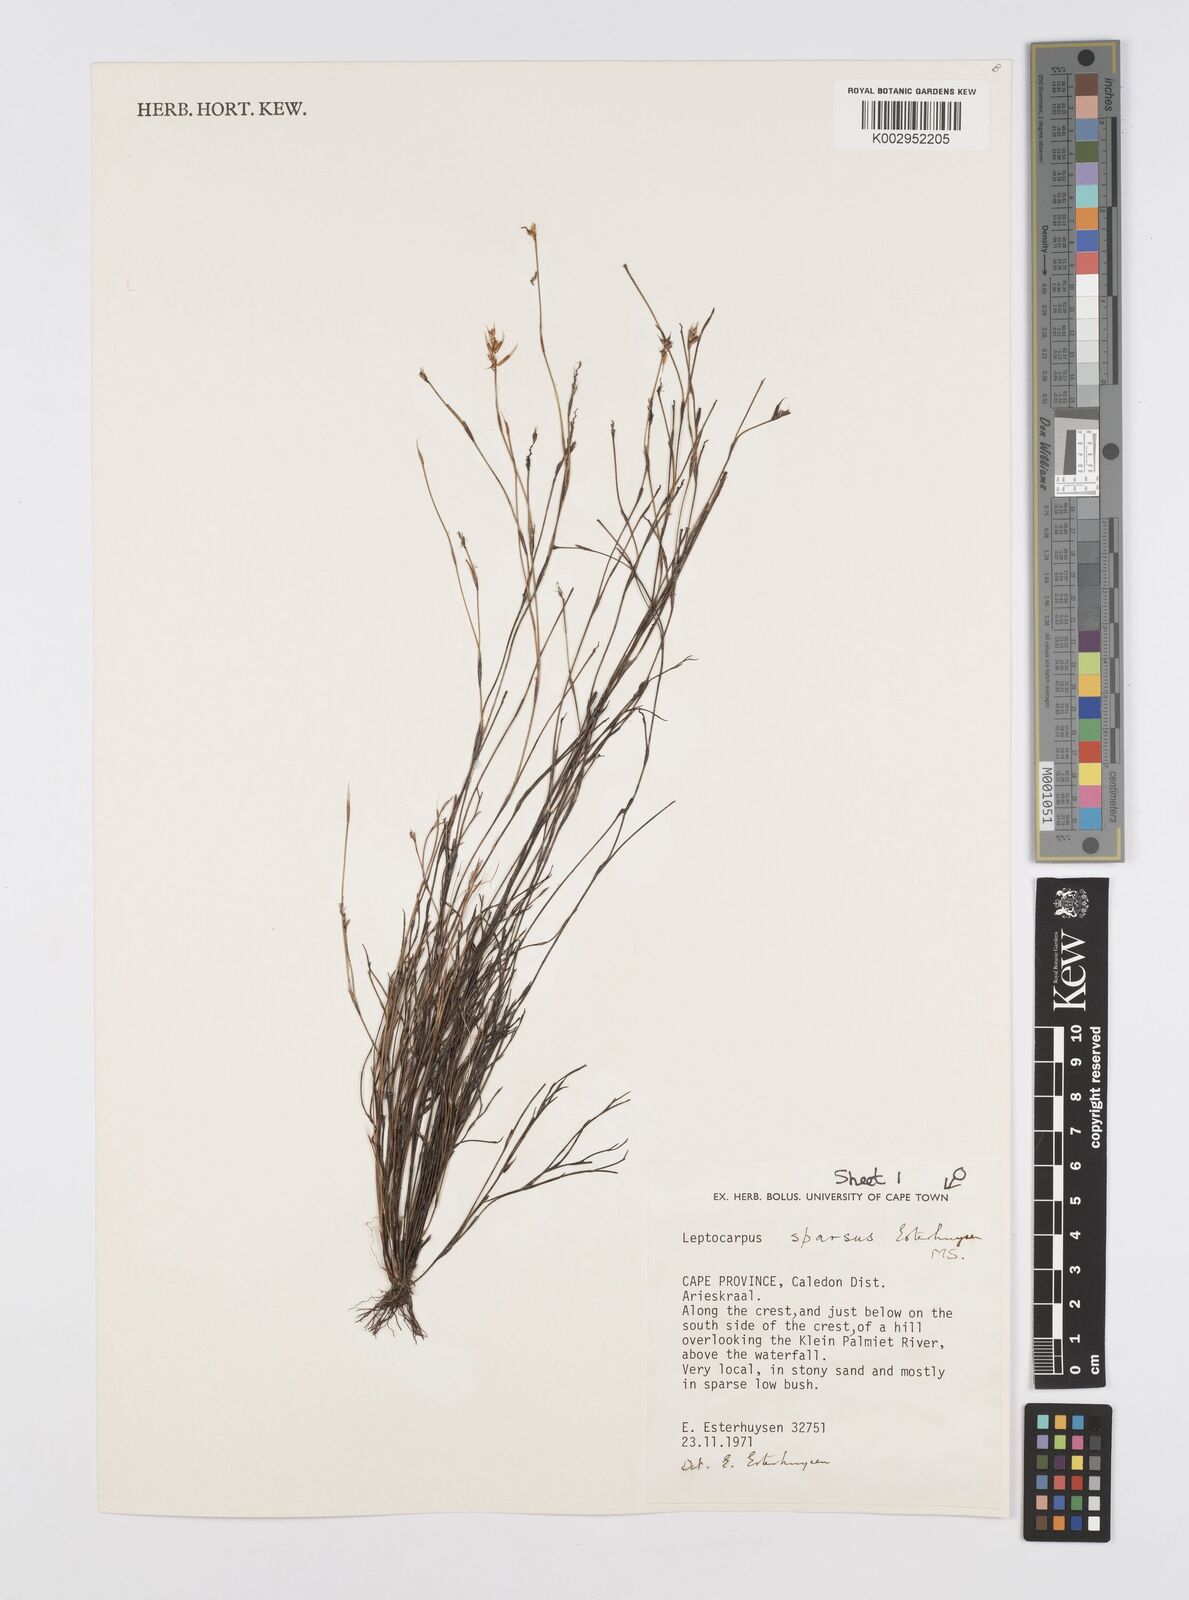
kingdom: Plantae
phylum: Tracheophyta
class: Liliopsida
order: Poales
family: Restionaceae
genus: Restio
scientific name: Restio strobilifer
